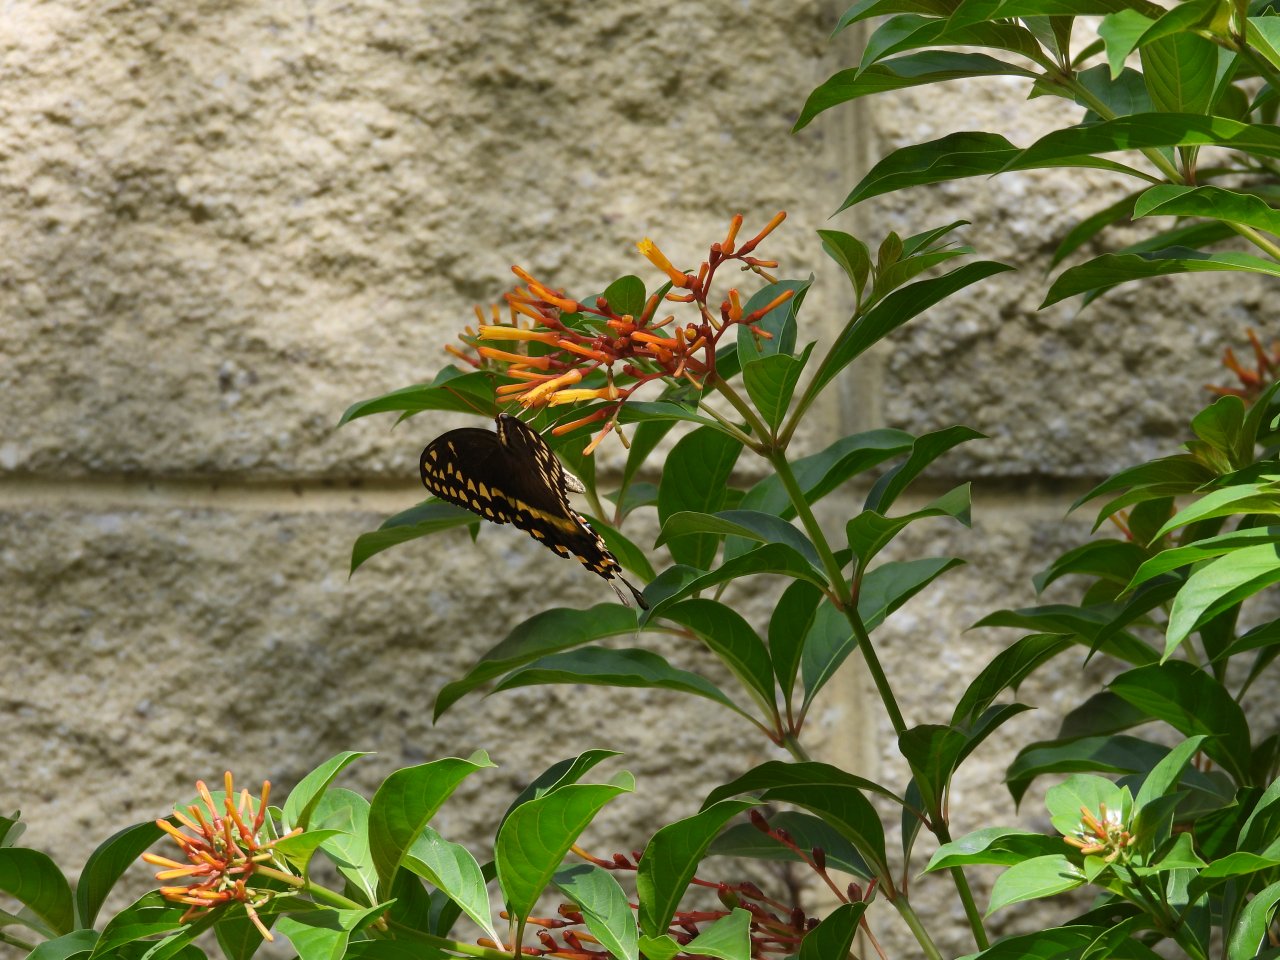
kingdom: Animalia
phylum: Arthropoda
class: Insecta
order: Lepidoptera
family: Papilionidae
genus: Pterourus
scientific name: Pterourus palamedes
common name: Palamedes Swallowtail
